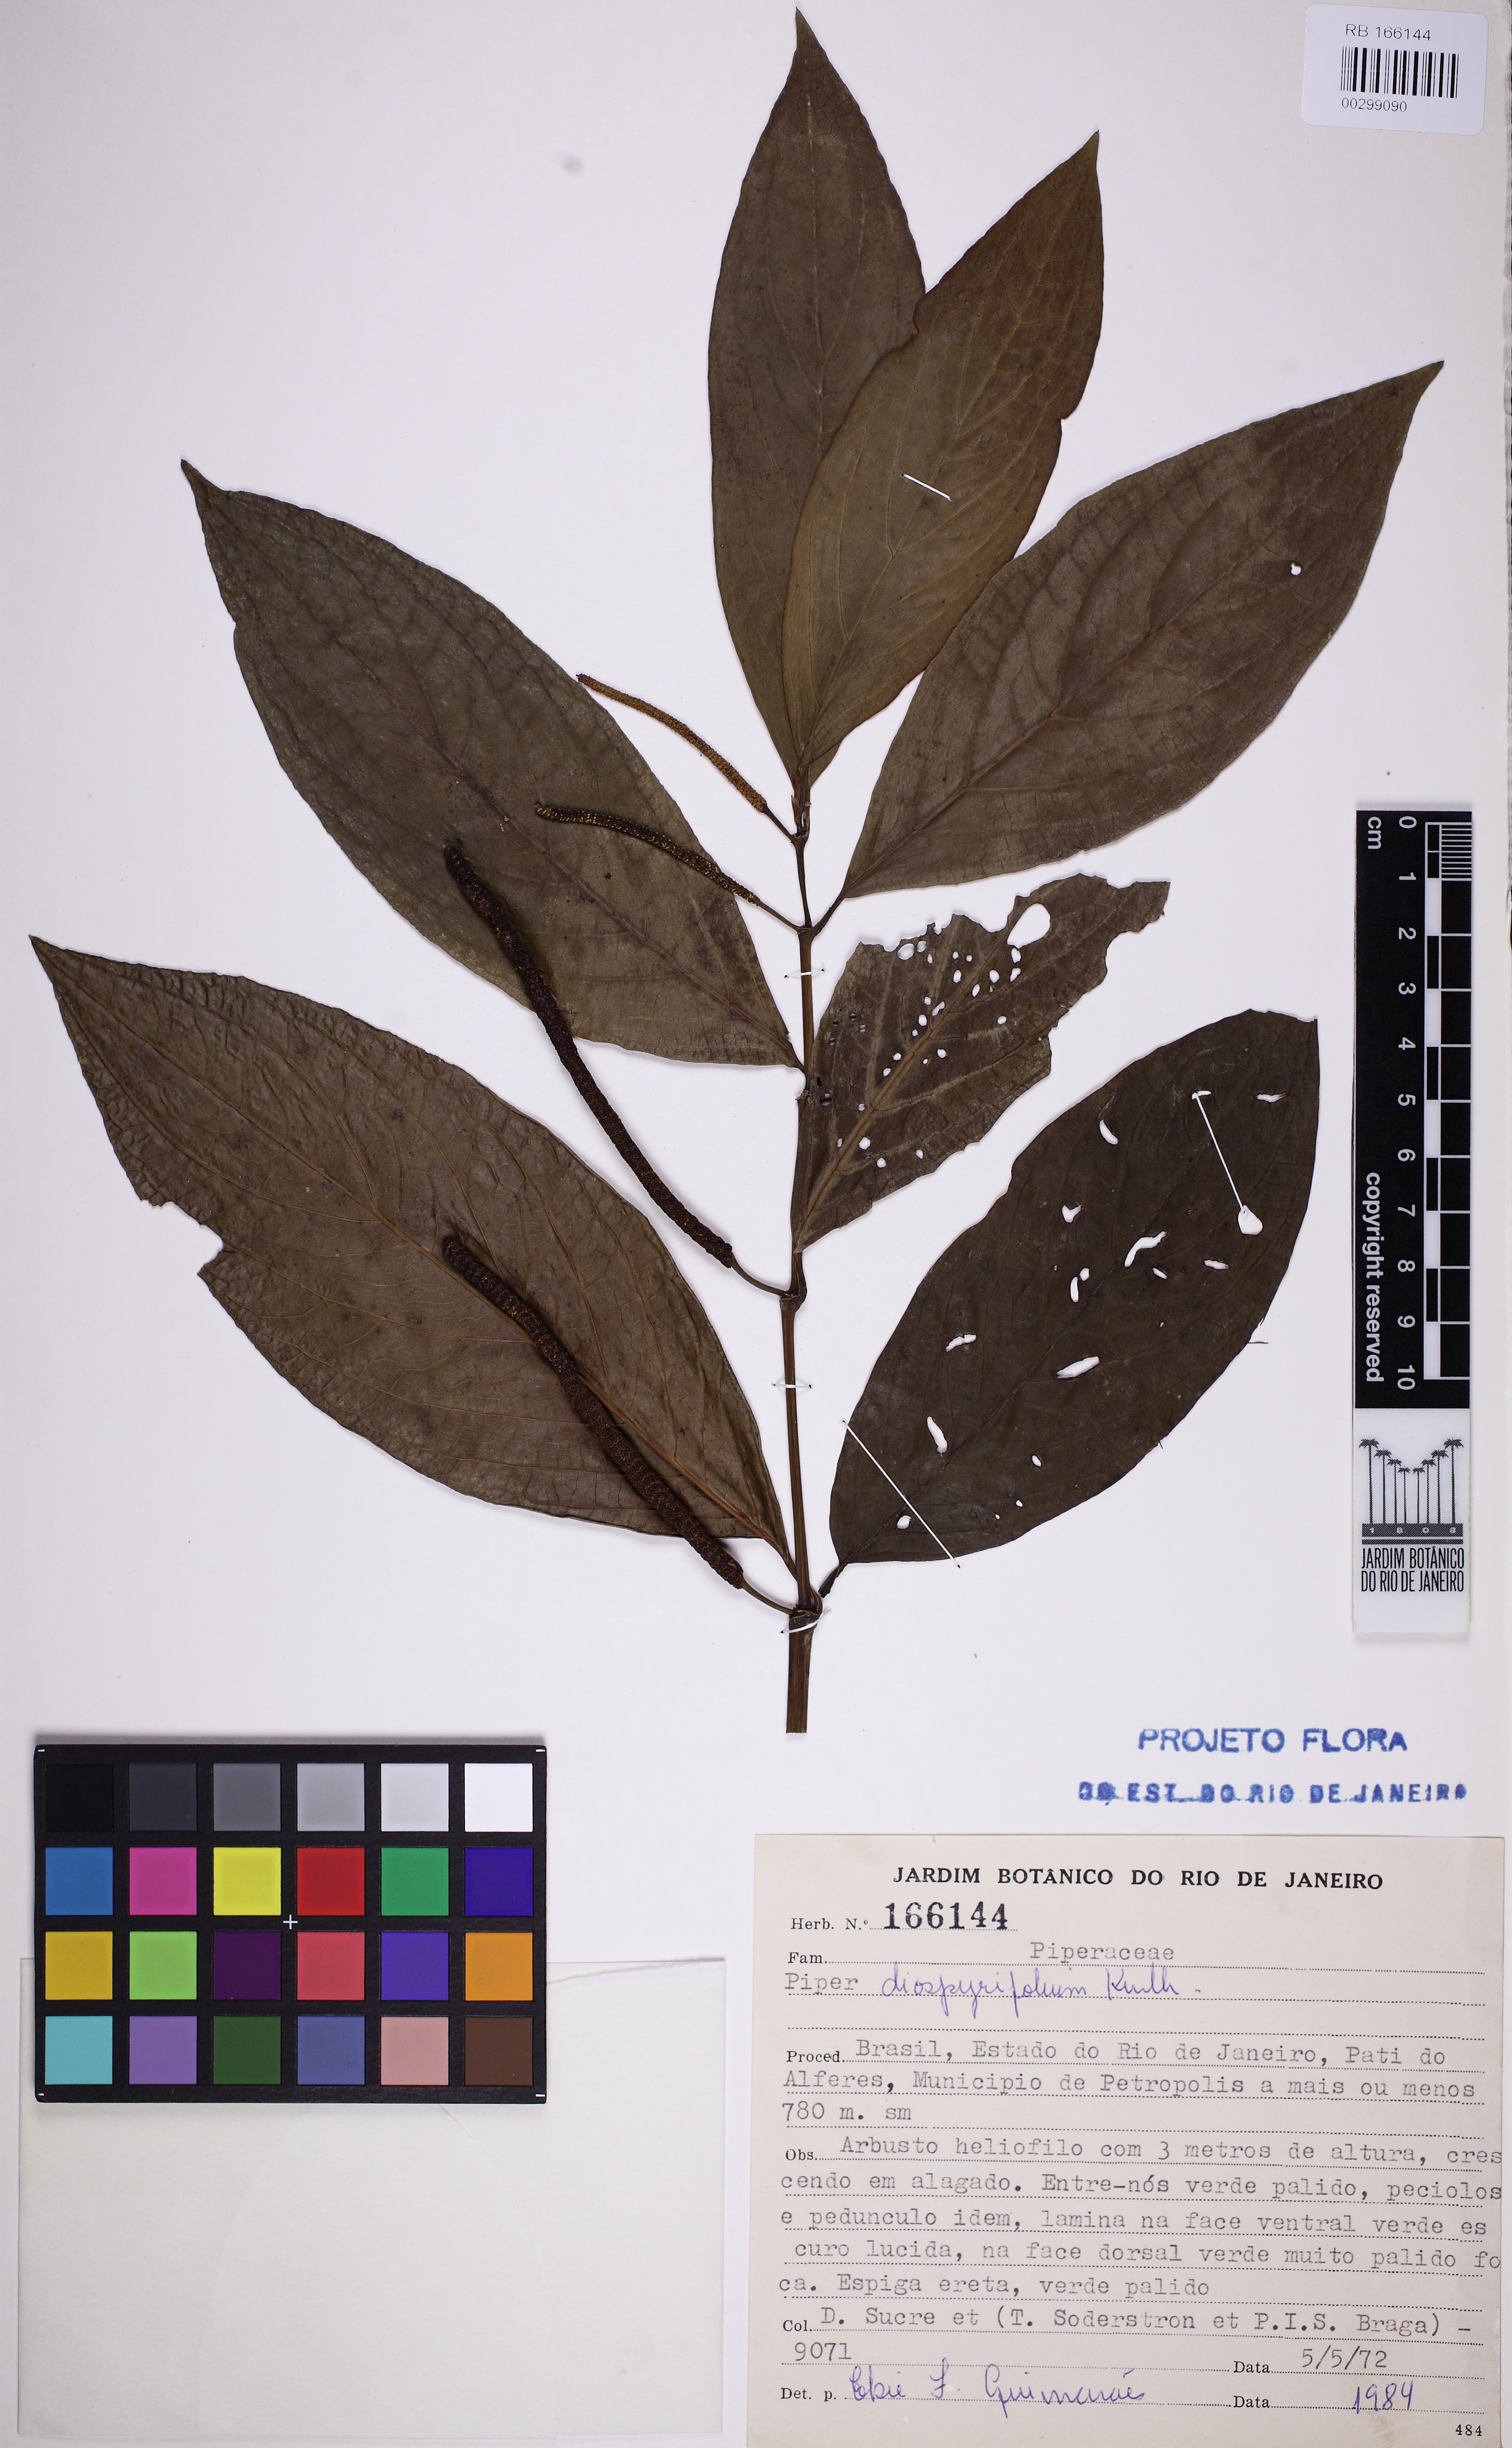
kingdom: Plantae
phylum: Tracheophyta
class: Magnoliopsida
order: Piperales
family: Piperaceae
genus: Piper
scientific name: Piper dipterocarpinum
